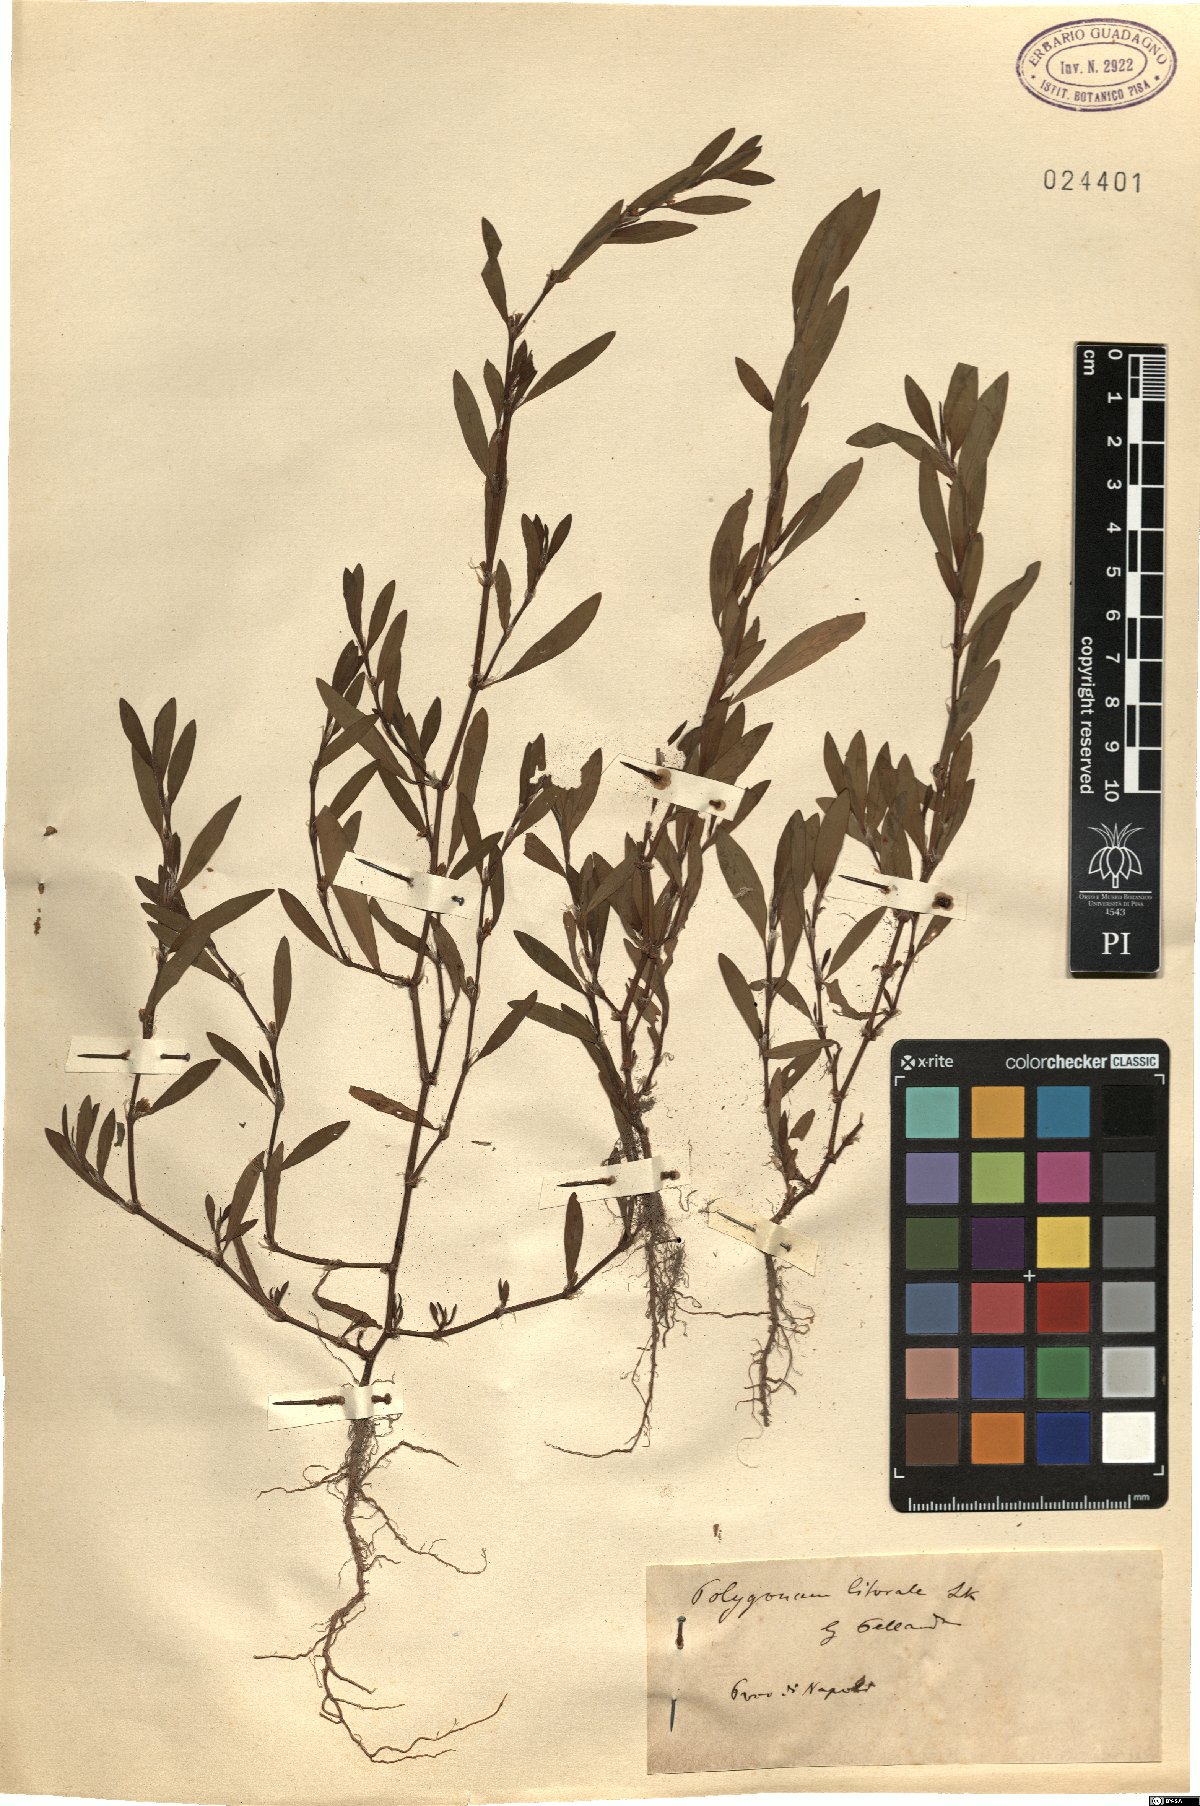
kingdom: Plantae
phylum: Tracheophyta
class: Magnoliopsida
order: Caryophyllales
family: Polygonaceae
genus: Polygonum
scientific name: Polygonum aviculare
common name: Prostrate knotweed
